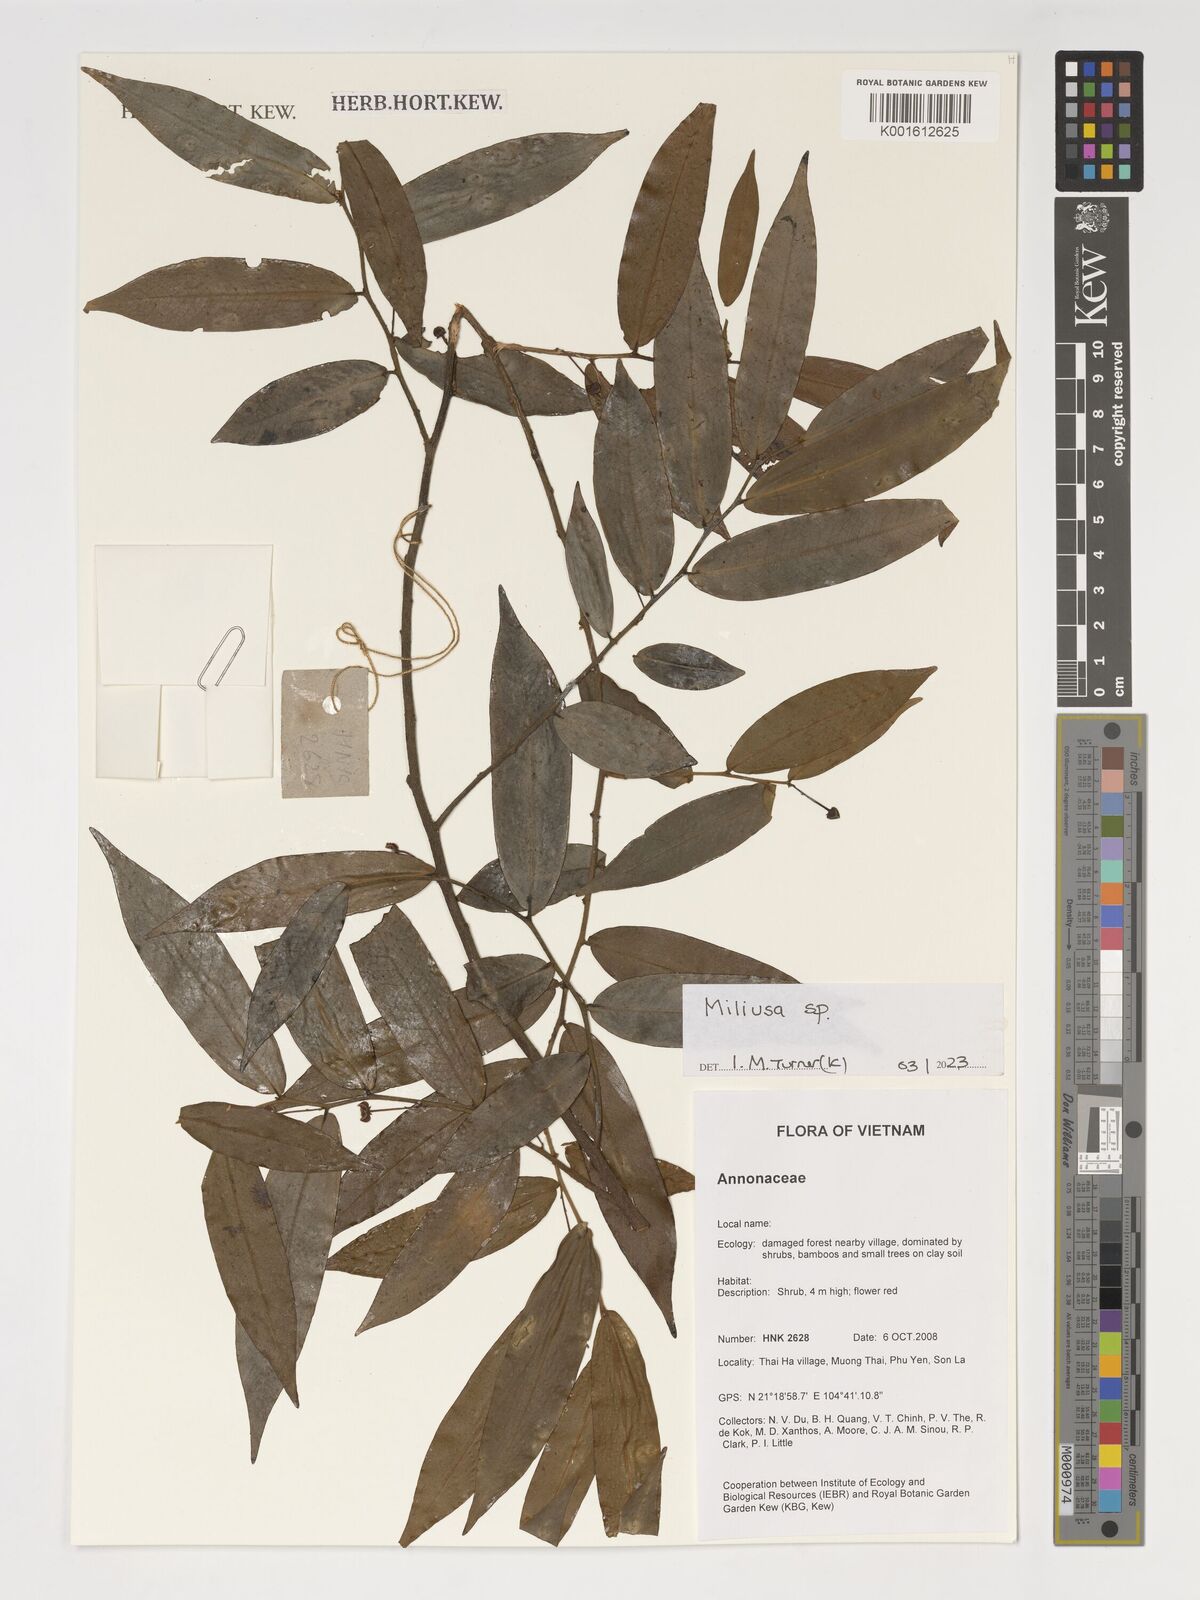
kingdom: Plantae
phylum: Tracheophyta
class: Magnoliopsida
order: Magnoliales
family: Annonaceae
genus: Miliusa
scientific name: Miliusa
